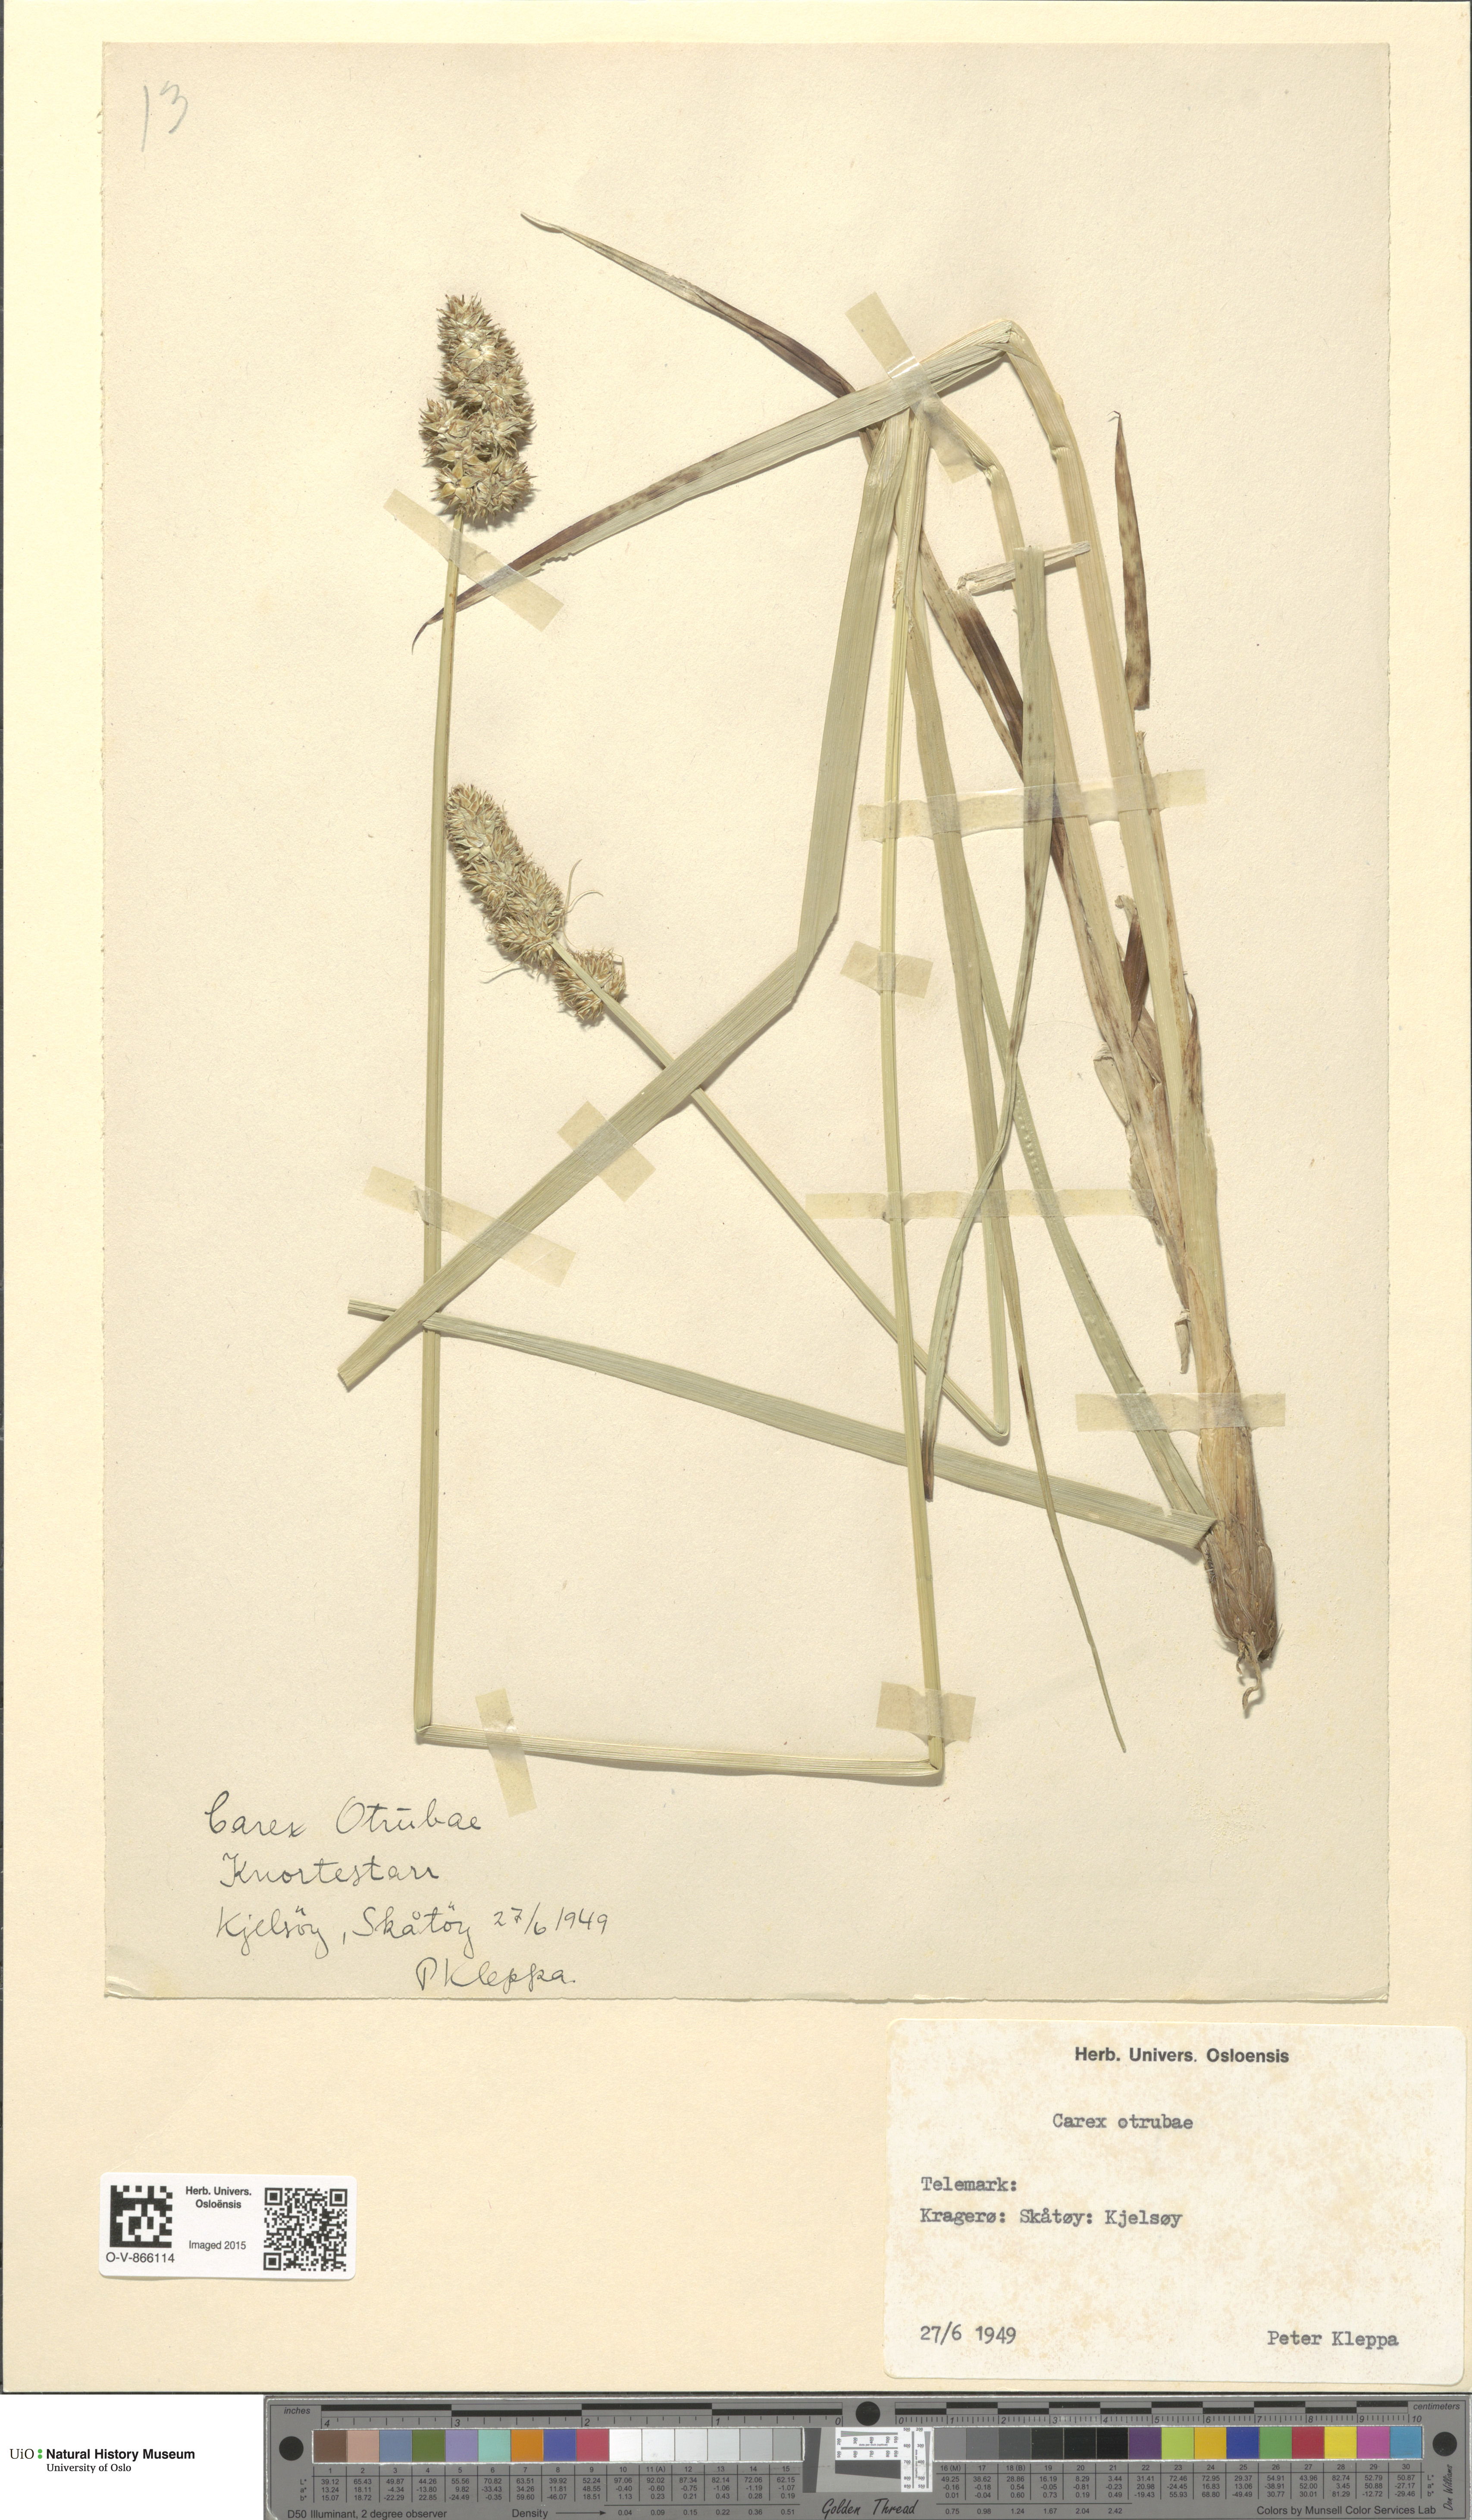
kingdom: Plantae
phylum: Tracheophyta
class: Liliopsida
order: Poales
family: Cyperaceae
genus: Carex
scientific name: Carex otrubae
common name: False fox-sedge
